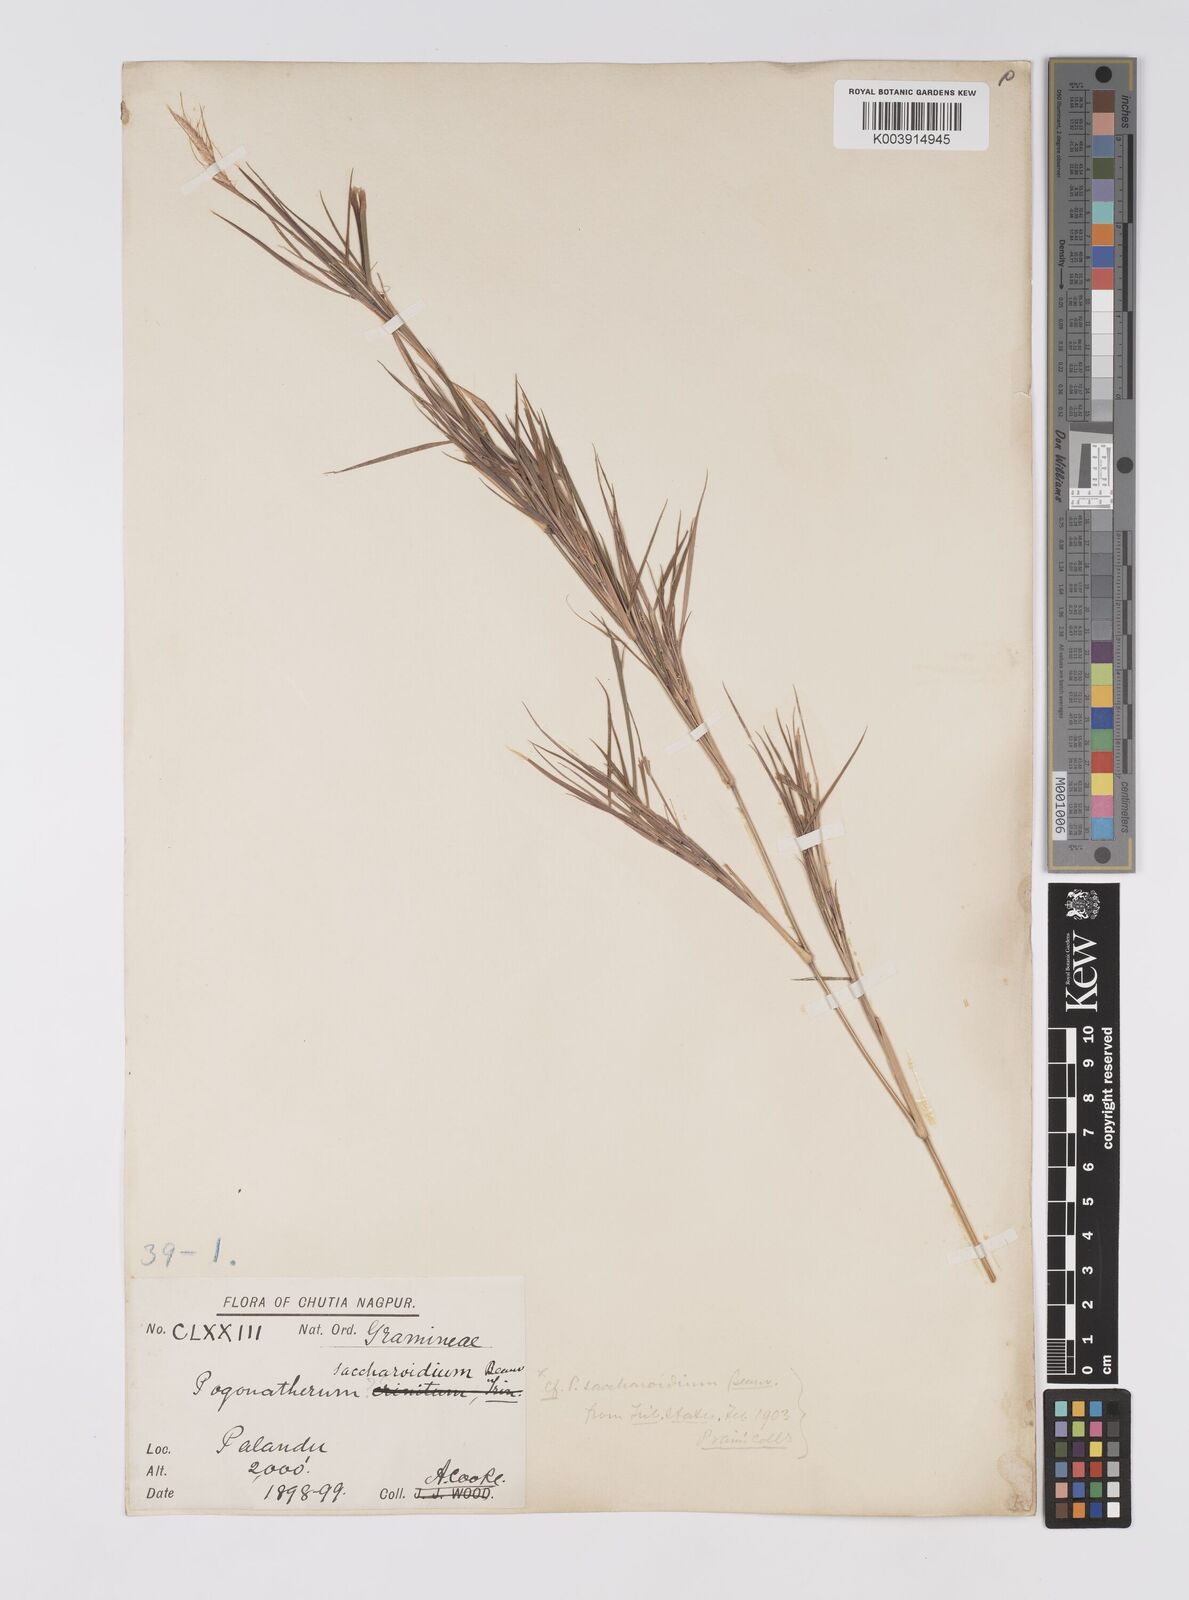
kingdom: Plantae
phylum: Tracheophyta
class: Liliopsida
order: Poales
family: Poaceae
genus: Pogonatherum
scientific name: Pogonatherum paniceum
